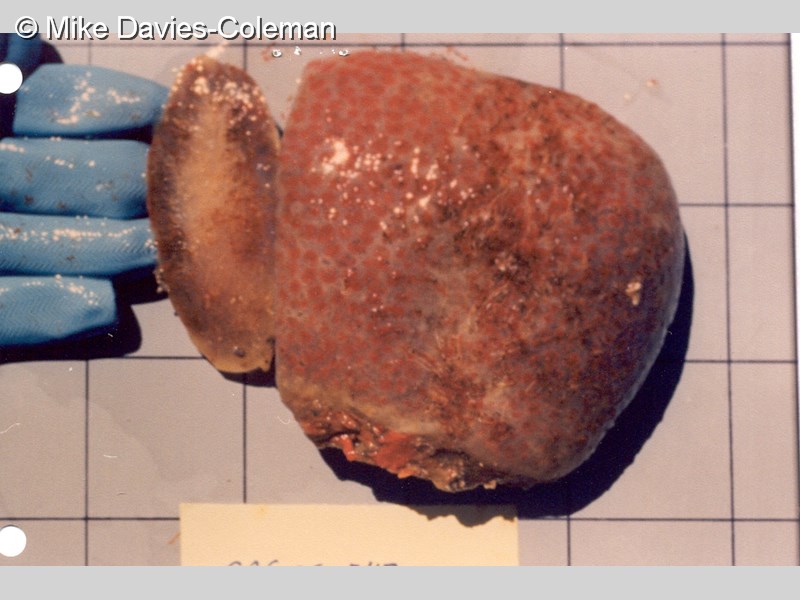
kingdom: Animalia
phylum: Chordata
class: Ascidiacea
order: Aplousobranchia
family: Polyclinidae
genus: Synoicum
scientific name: Synoicum
